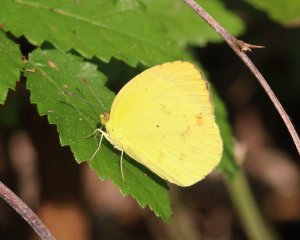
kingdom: Animalia
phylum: Arthropoda
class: Insecta
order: Lepidoptera
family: Pieridae
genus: Pyrisitia
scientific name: Pyrisitia nise
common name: Mimosa Yellow
